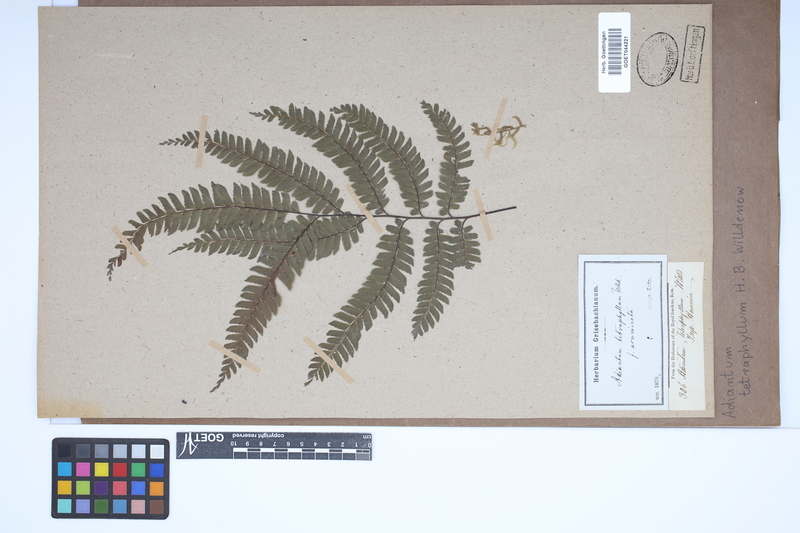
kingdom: Plantae
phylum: Tracheophyta
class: Polypodiopsida
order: Polypodiales
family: Pteridaceae
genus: Adiantum
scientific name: Adiantum tetraphyllum
